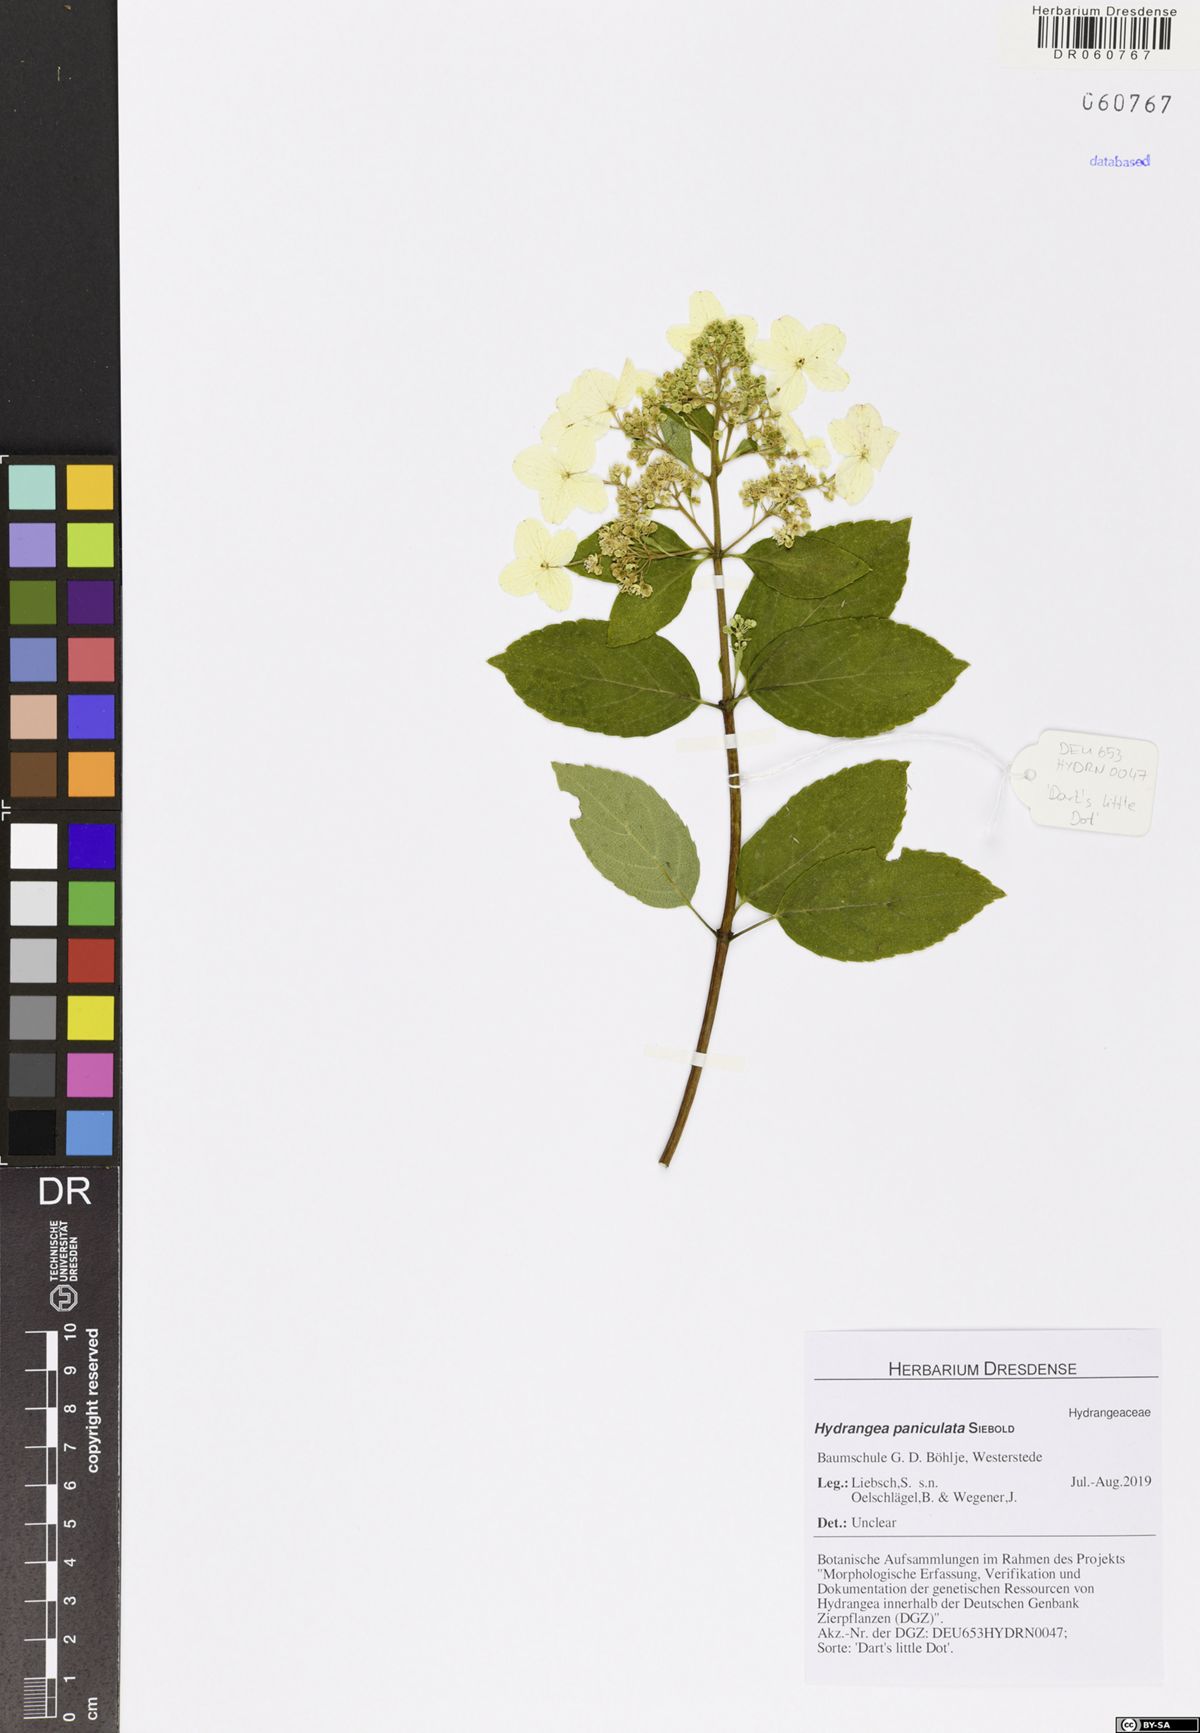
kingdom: Plantae
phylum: Tracheophyta
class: Magnoliopsida
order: Cornales
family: Hydrangeaceae
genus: Hydrangea
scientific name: Hydrangea paniculata
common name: Panicled hydrangea
